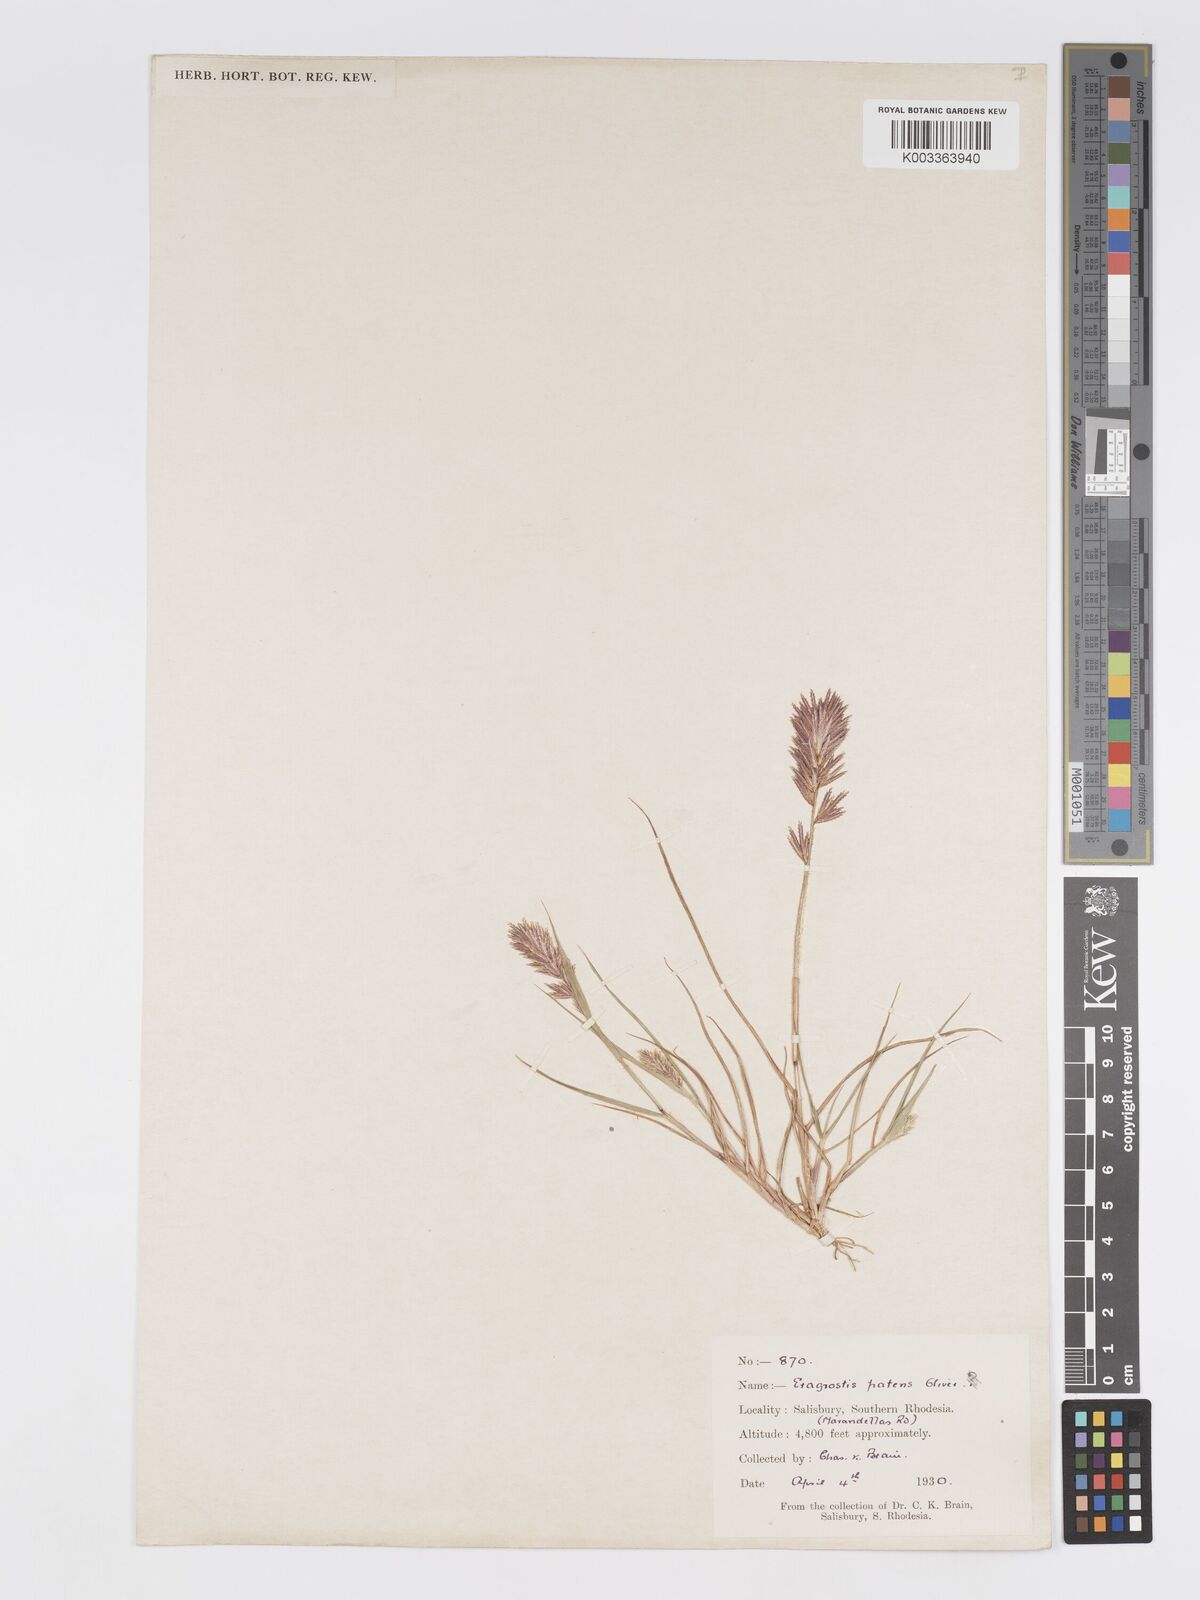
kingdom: Plantae
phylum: Tracheophyta
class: Liliopsida
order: Poales
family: Poaceae
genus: Eragrostis
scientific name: Eragrostis patens
